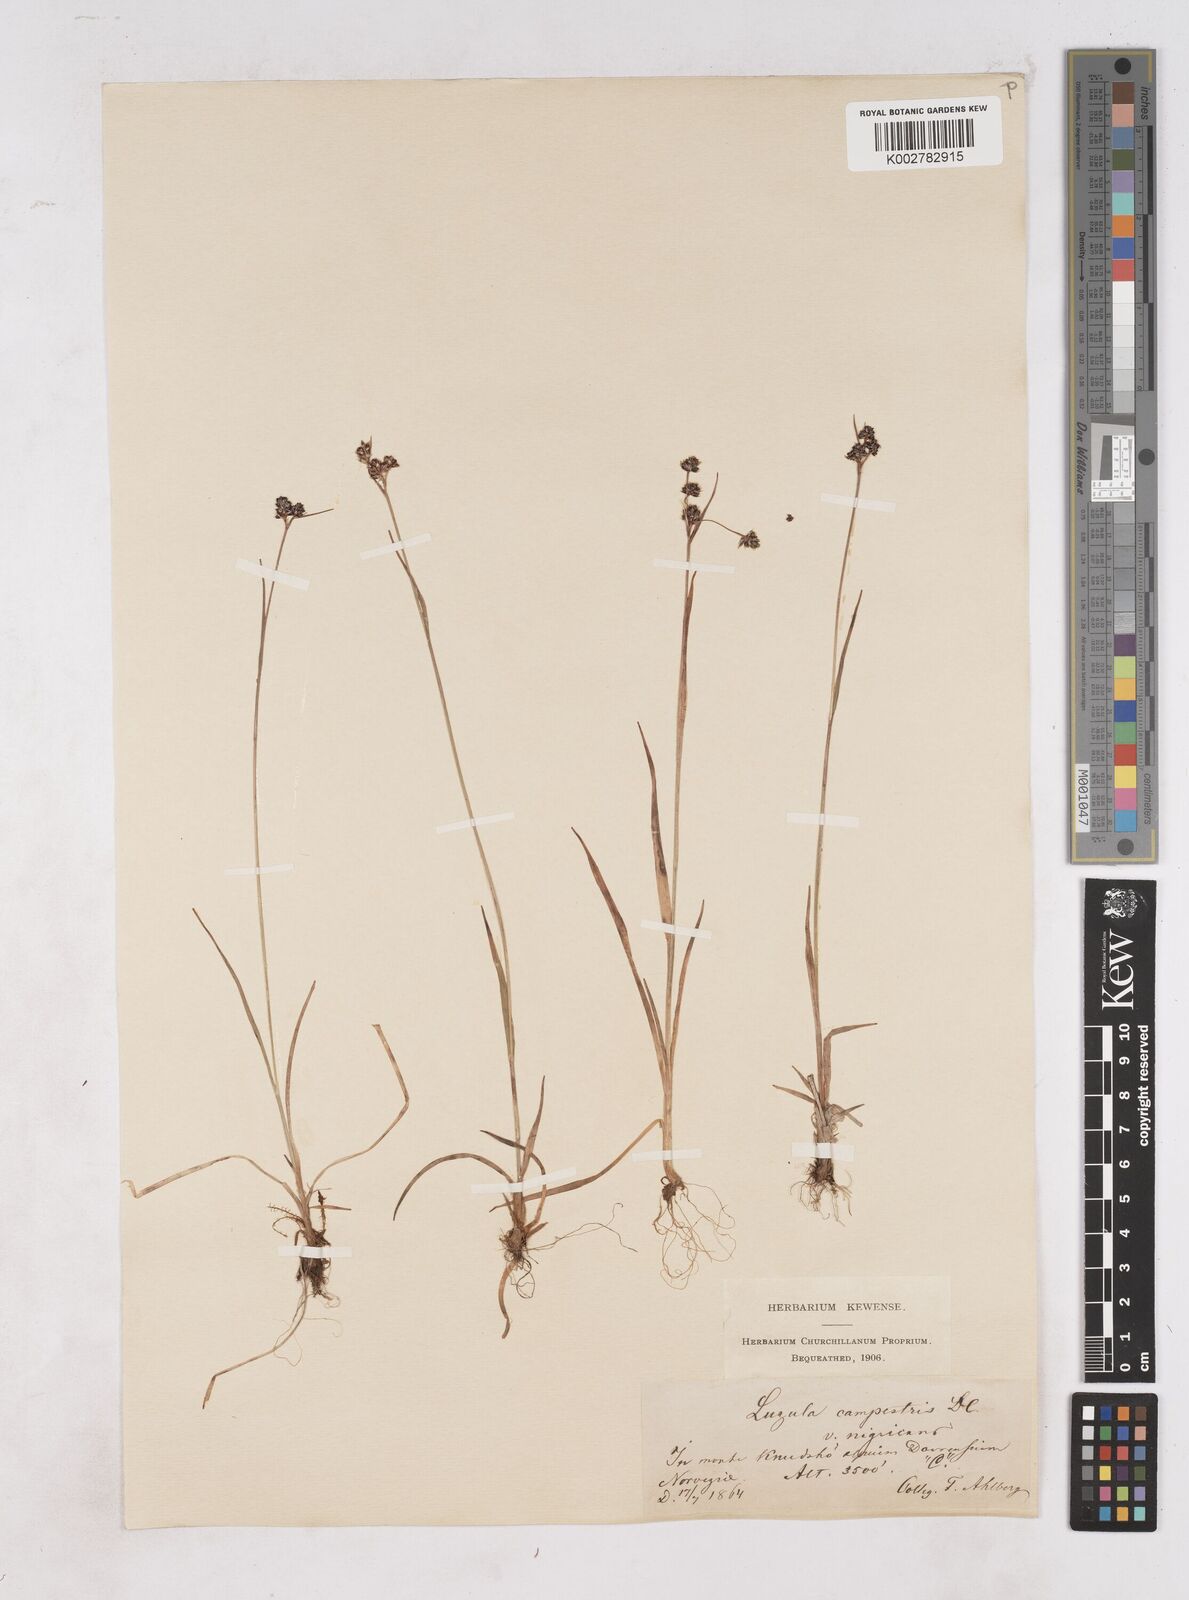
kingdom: Plantae
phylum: Tracheophyta
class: Liliopsida
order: Poales
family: Juncaceae
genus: Luzula
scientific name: Luzula campestris
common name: Field wood-rush
